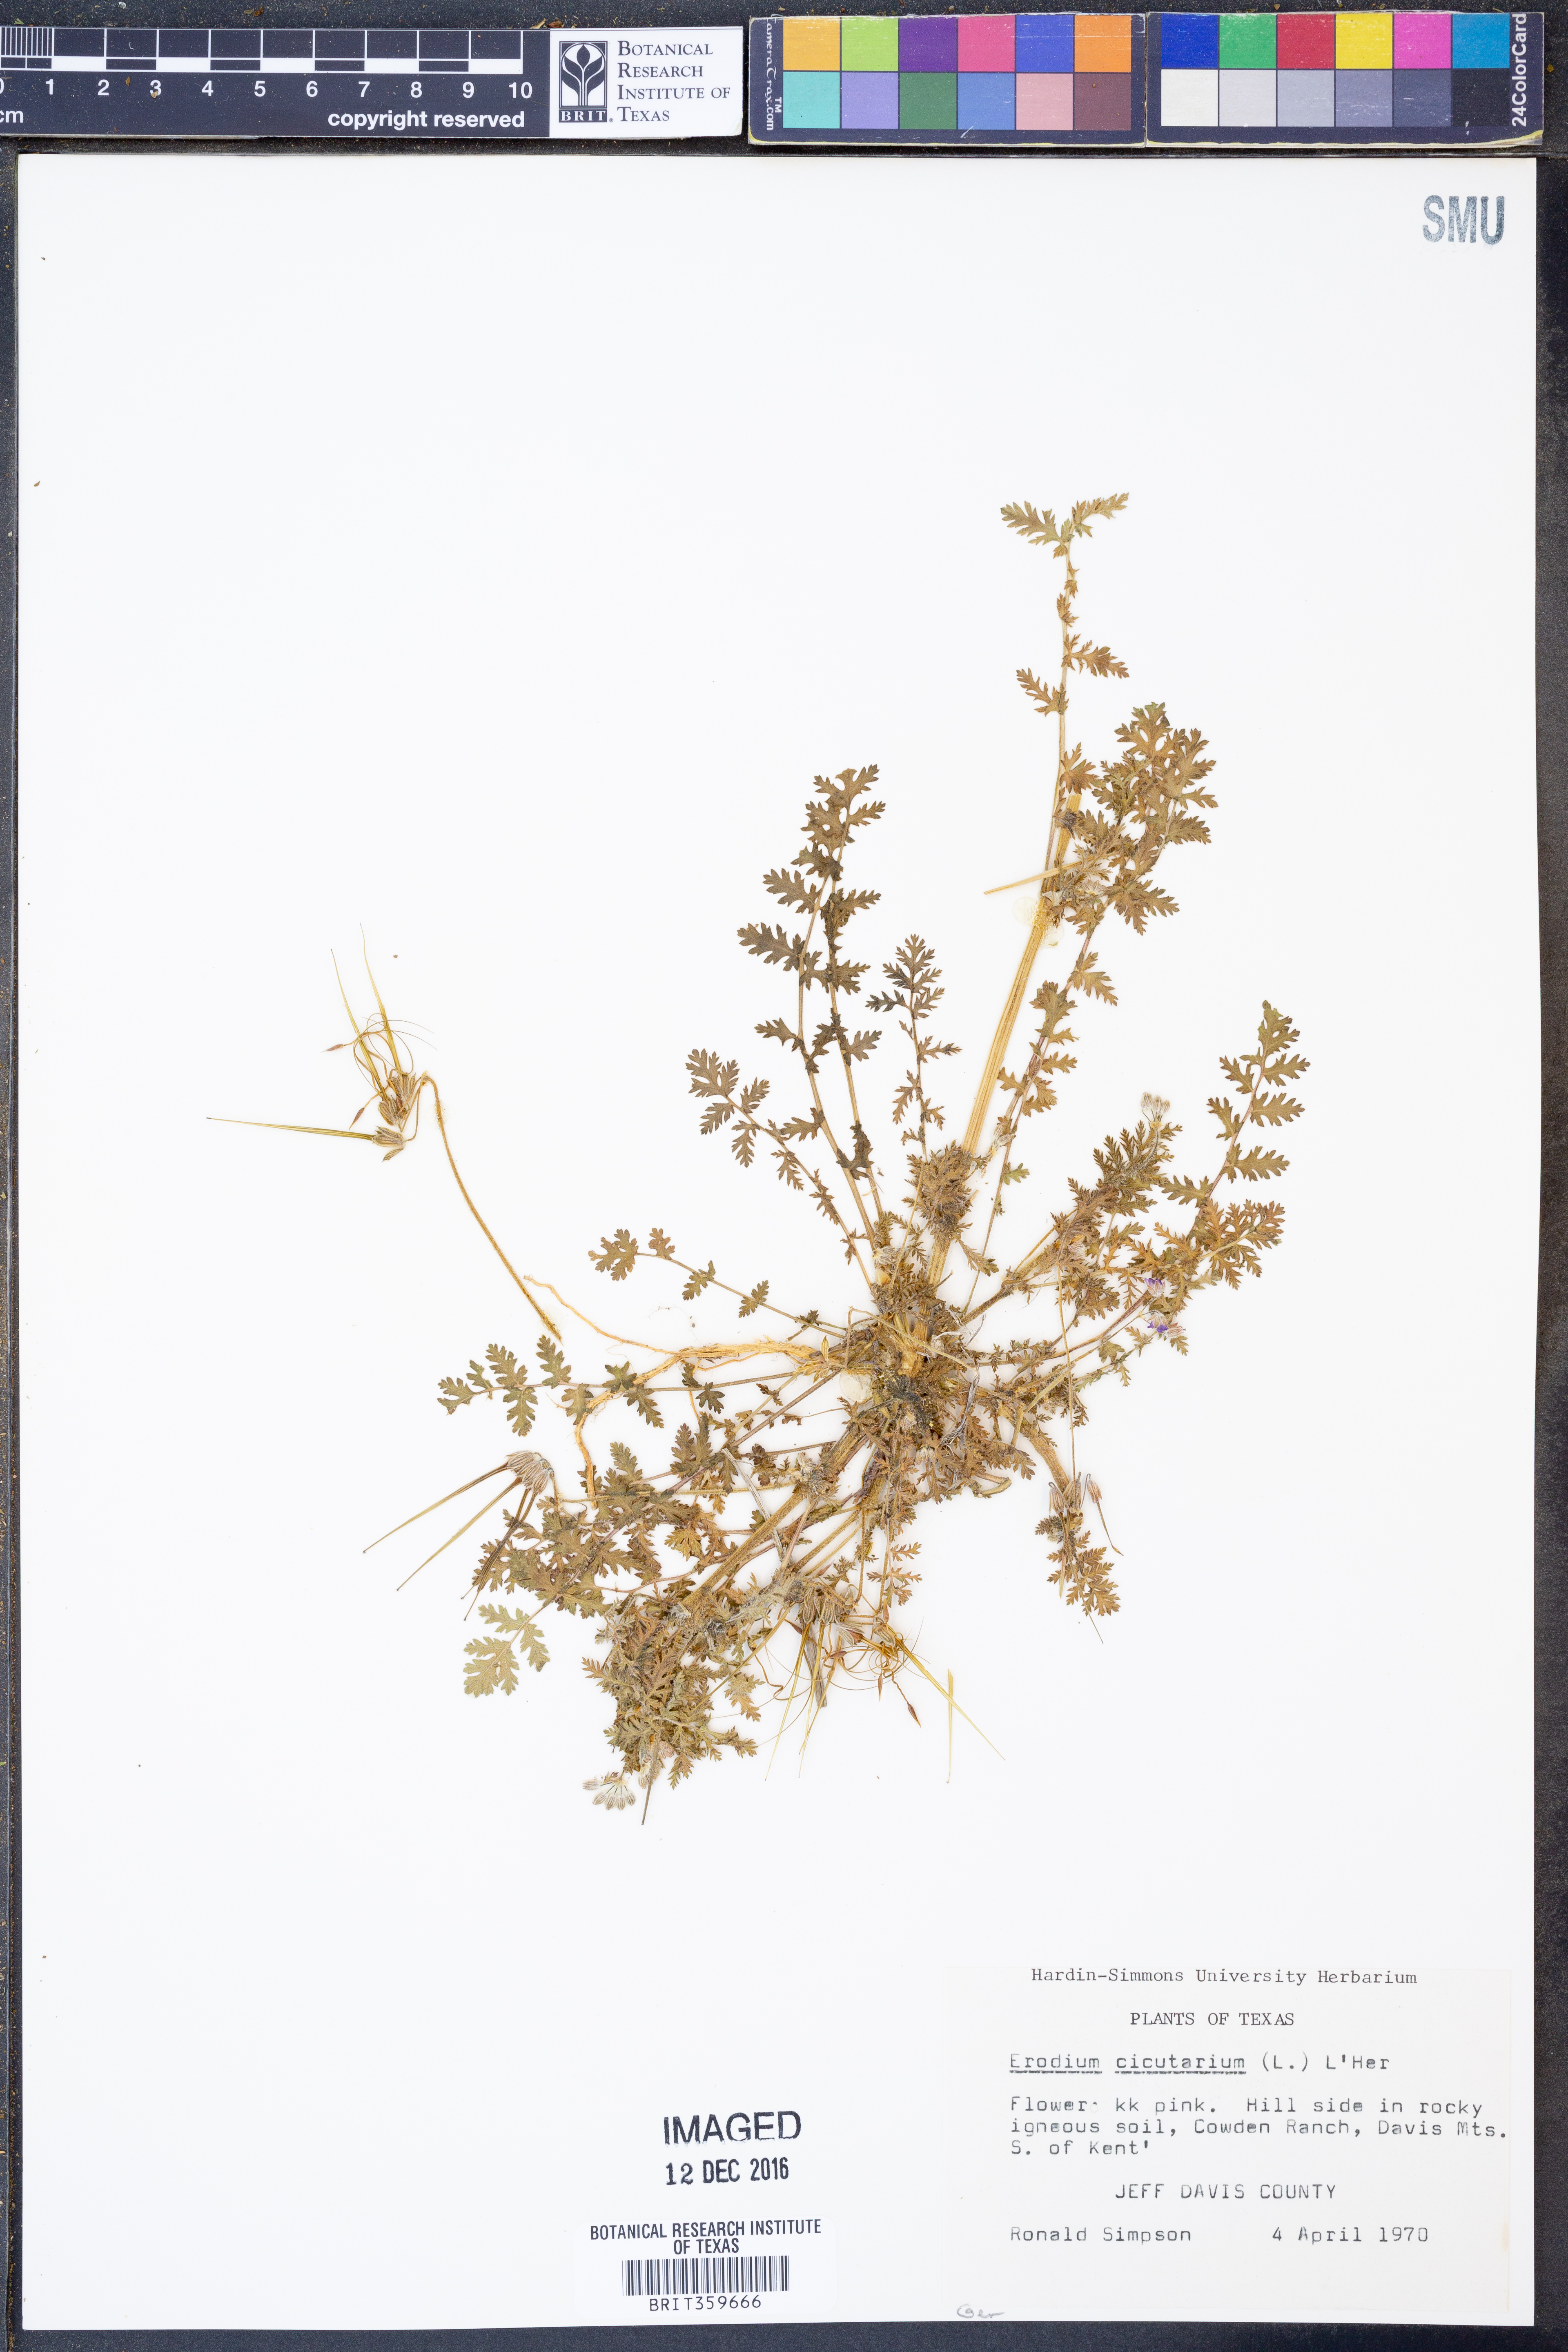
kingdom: Plantae
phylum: Tracheophyta
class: Magnoliopsida
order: Geraniales
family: Geraniaceae
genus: Erodium
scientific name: Erodium cicutarium
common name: Common stork's-bill
